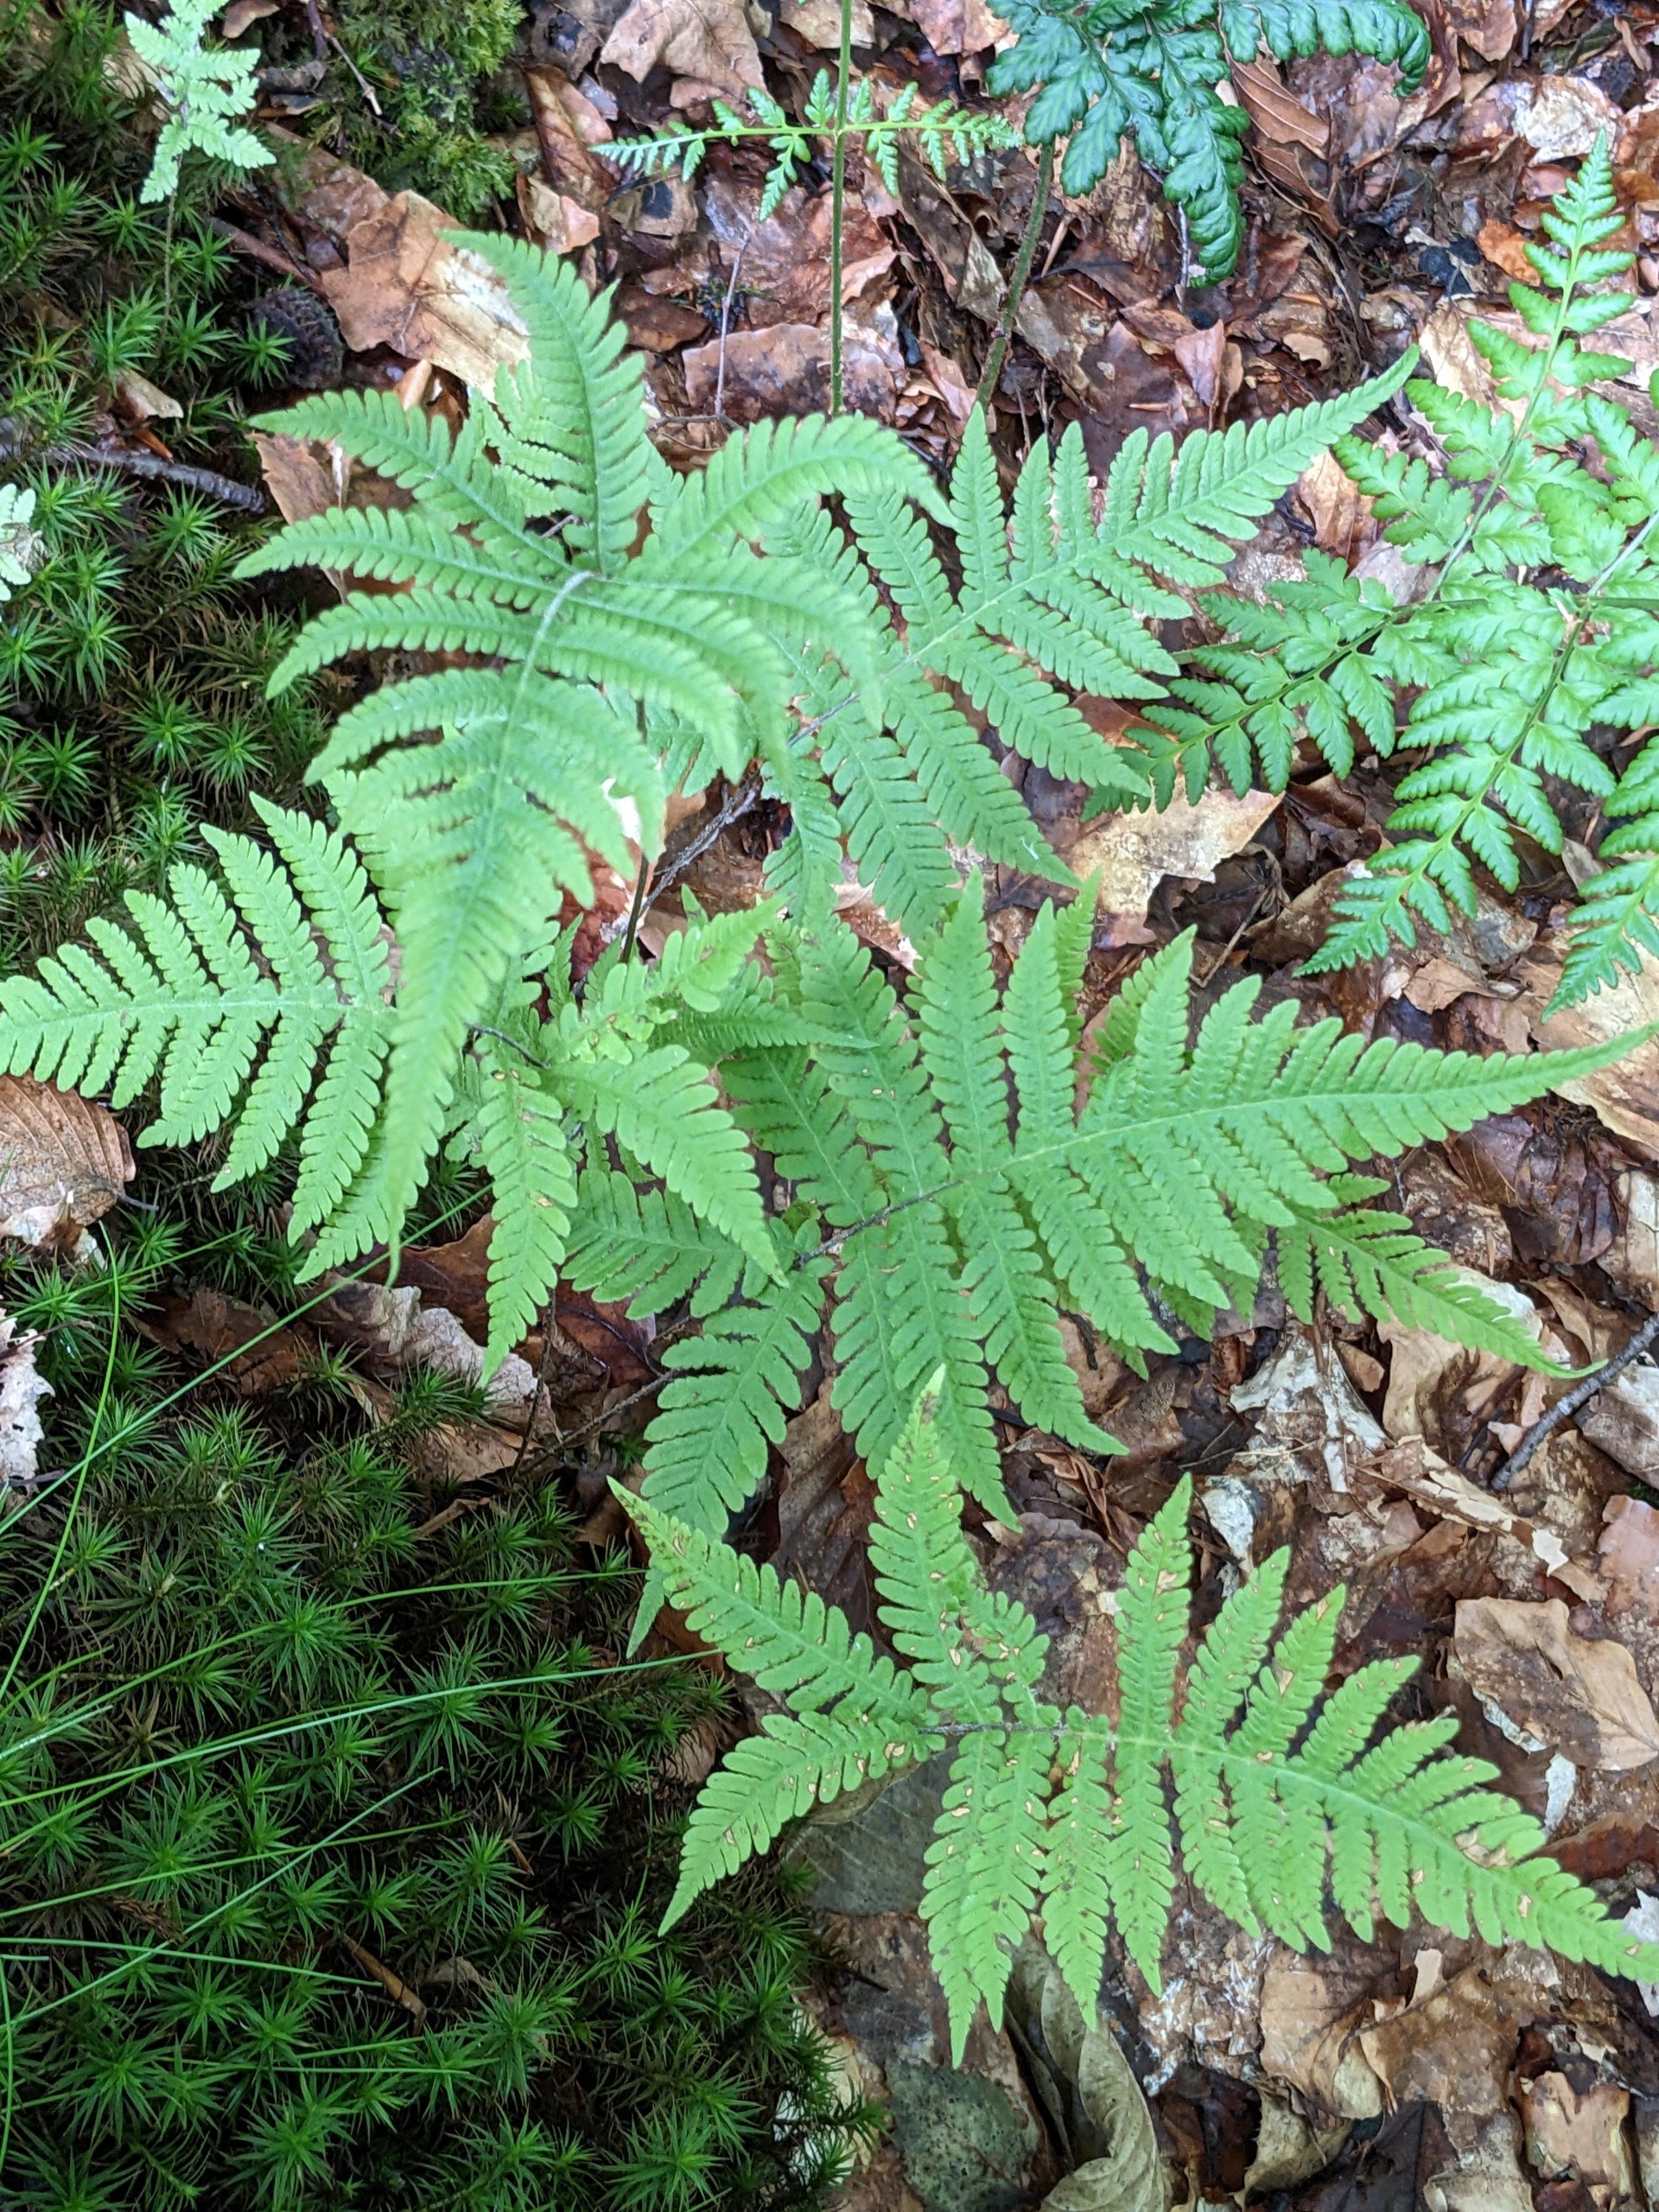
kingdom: Plantae
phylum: Tracheophyta
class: Polypodiopsida
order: Polypodiales
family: Thelypteridaceae
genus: Phegopteris
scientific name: Phegopteris connectilis
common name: Dunet egebregne
